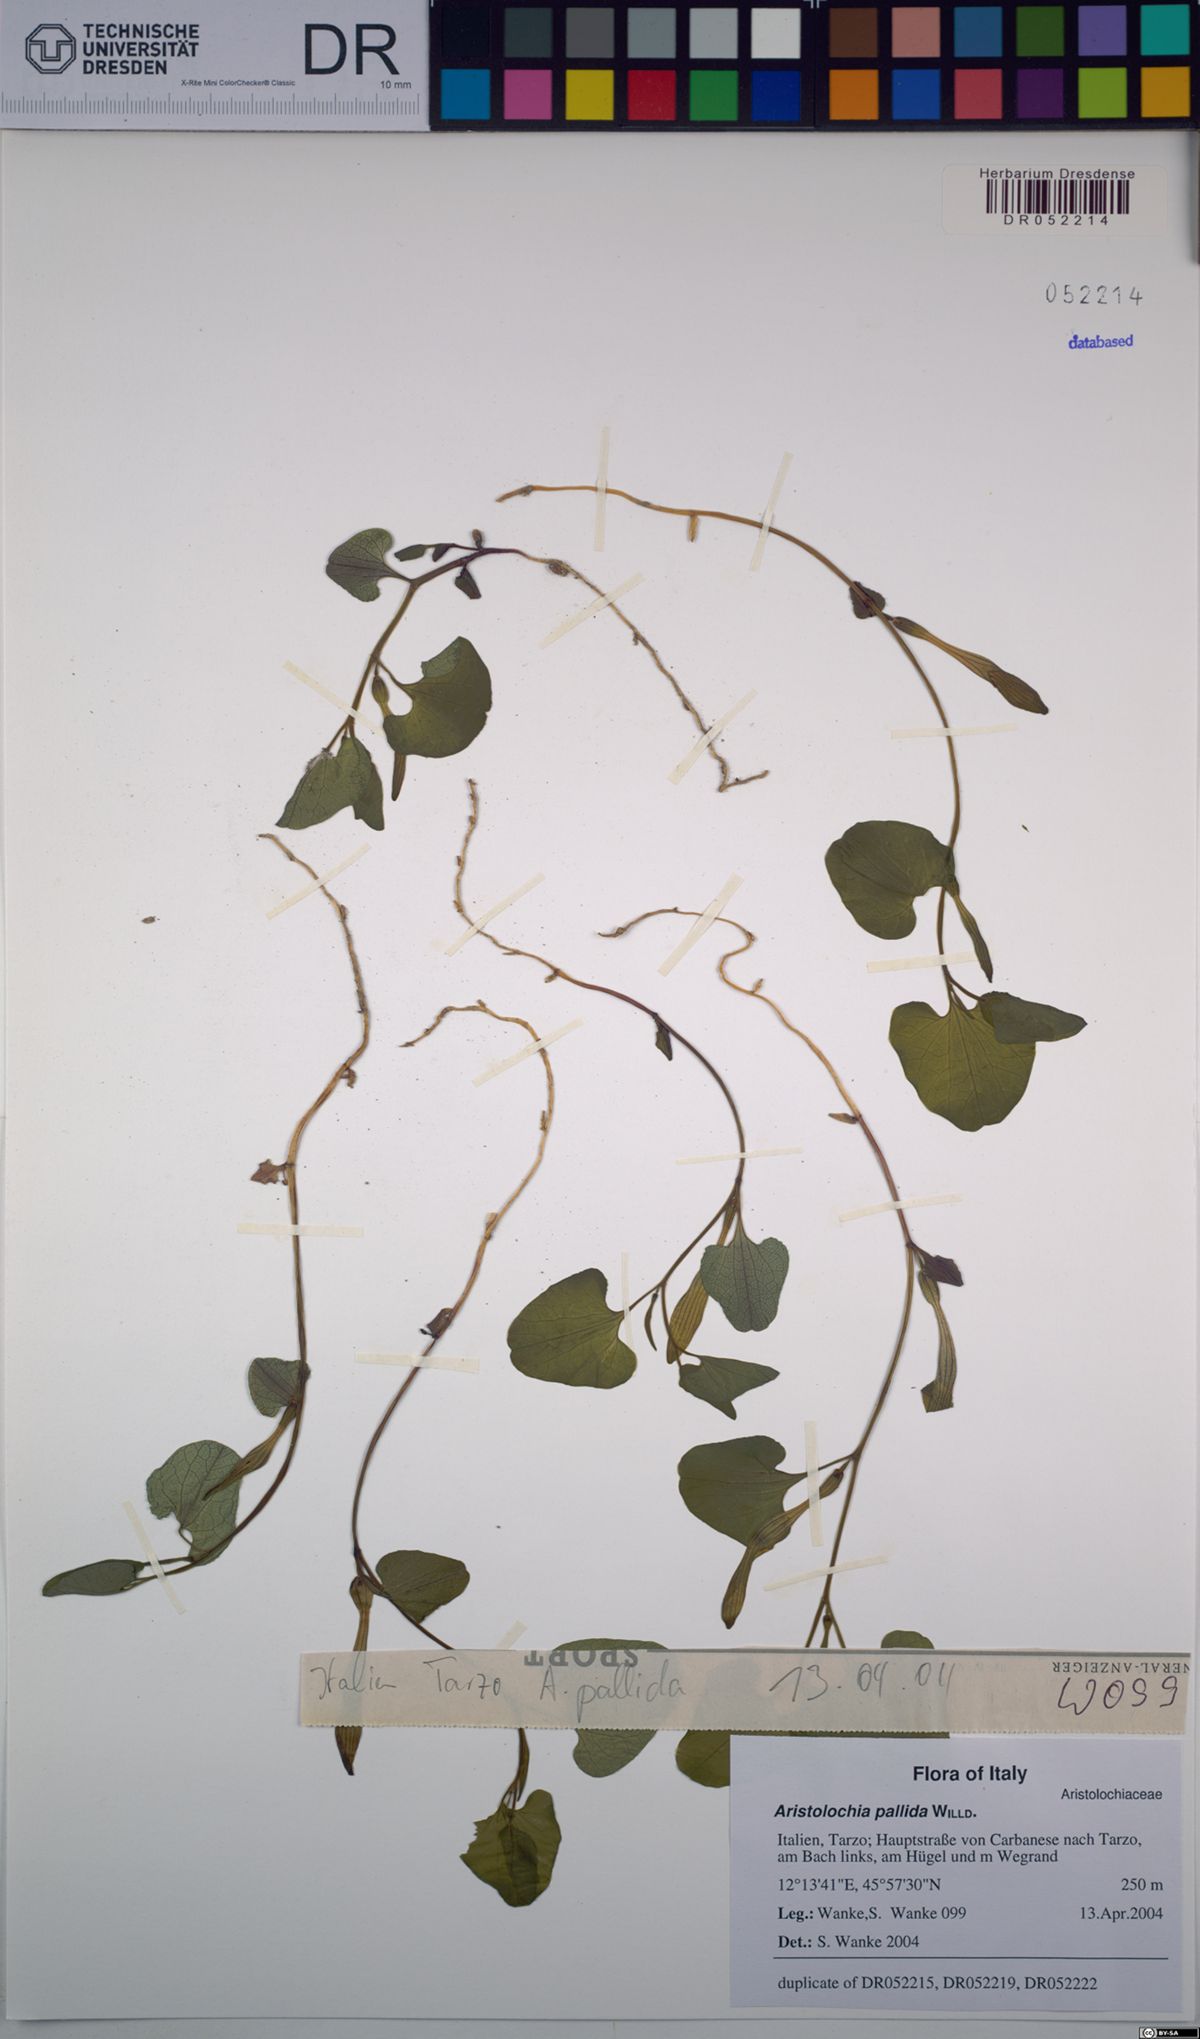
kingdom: Plantae
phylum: Tracheophyta
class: Magnoliopsida
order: Piperales
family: Aristolochiaceae
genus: Aristolochia
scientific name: Aristolochia pallida
